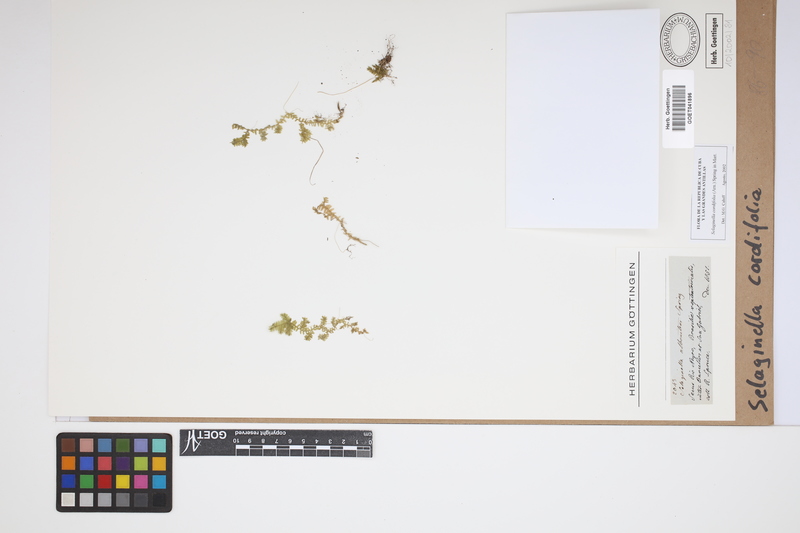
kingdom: Plantae
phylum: Tracheophyta
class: Lycopodiopsida
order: Selaginellales
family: Selaginellaceae
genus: Selaginella
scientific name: Selaginella cordifolia
